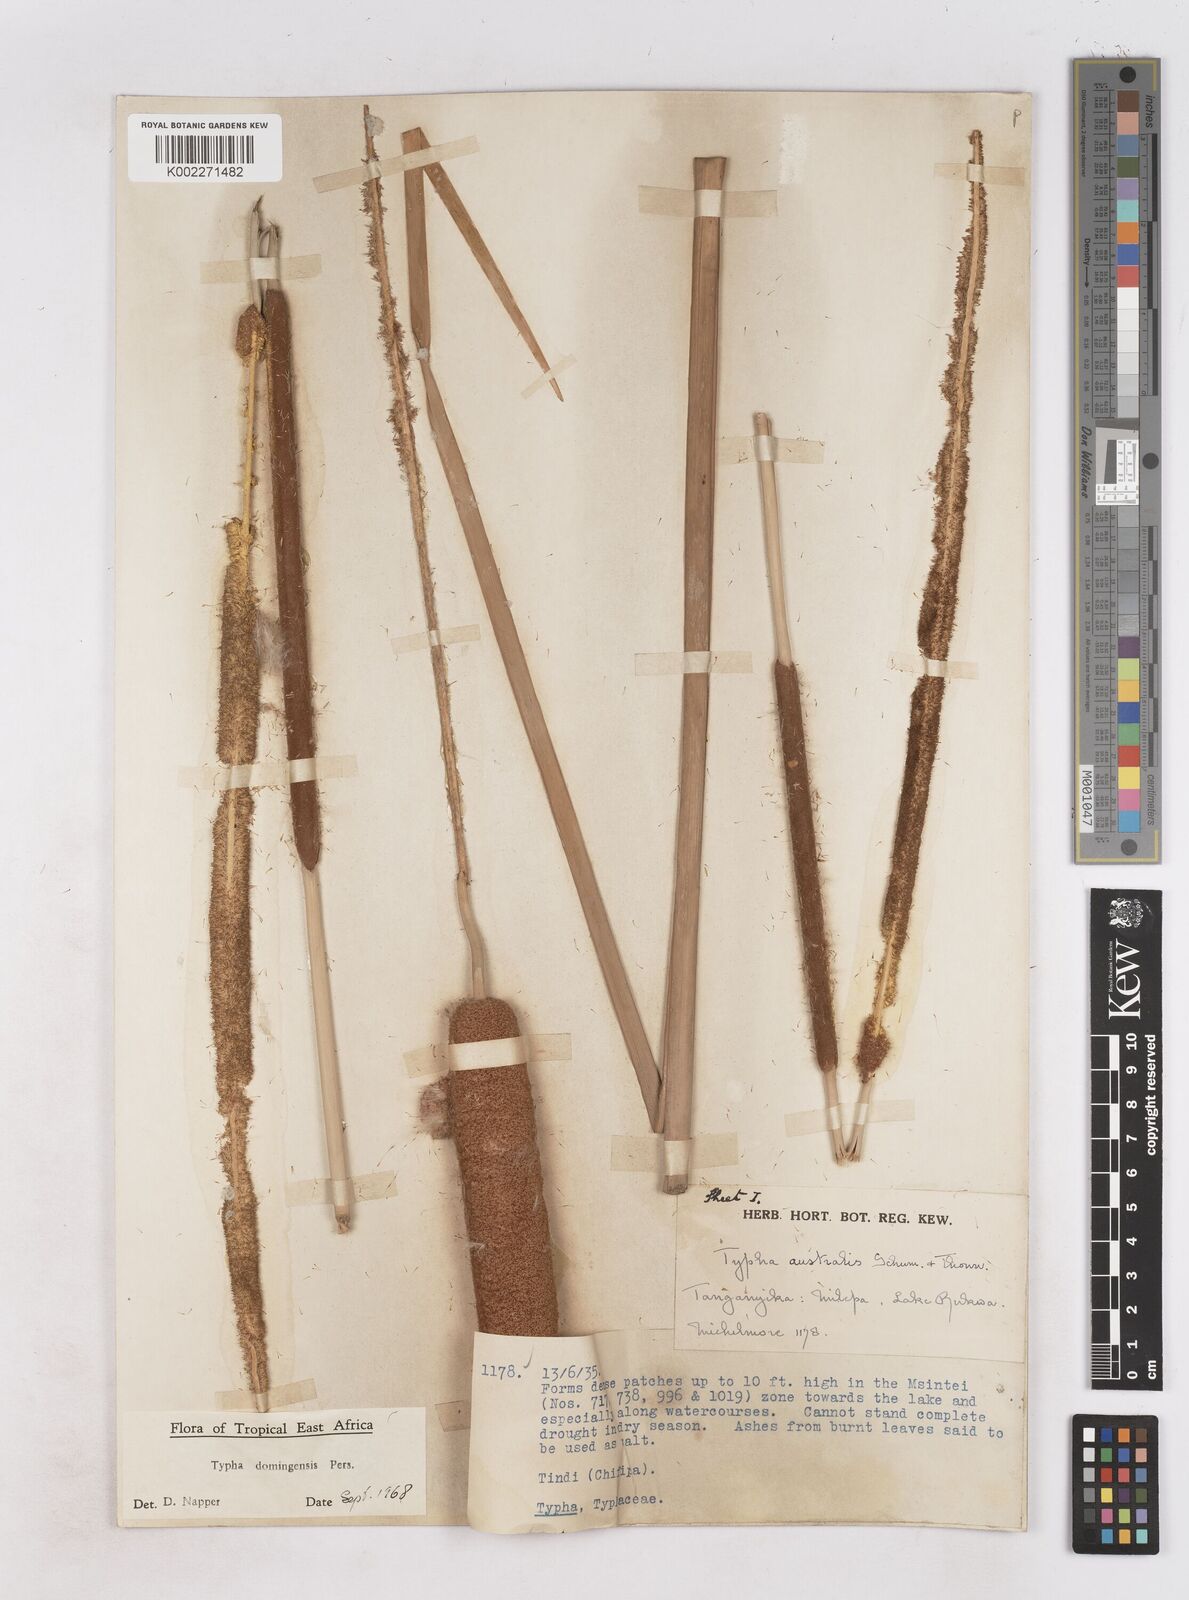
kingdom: Plantae
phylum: Tracheophyta
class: Liliopsida
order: Poales
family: Typhaceae
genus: Typha
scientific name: Typha domingensis
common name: Southern cattail
